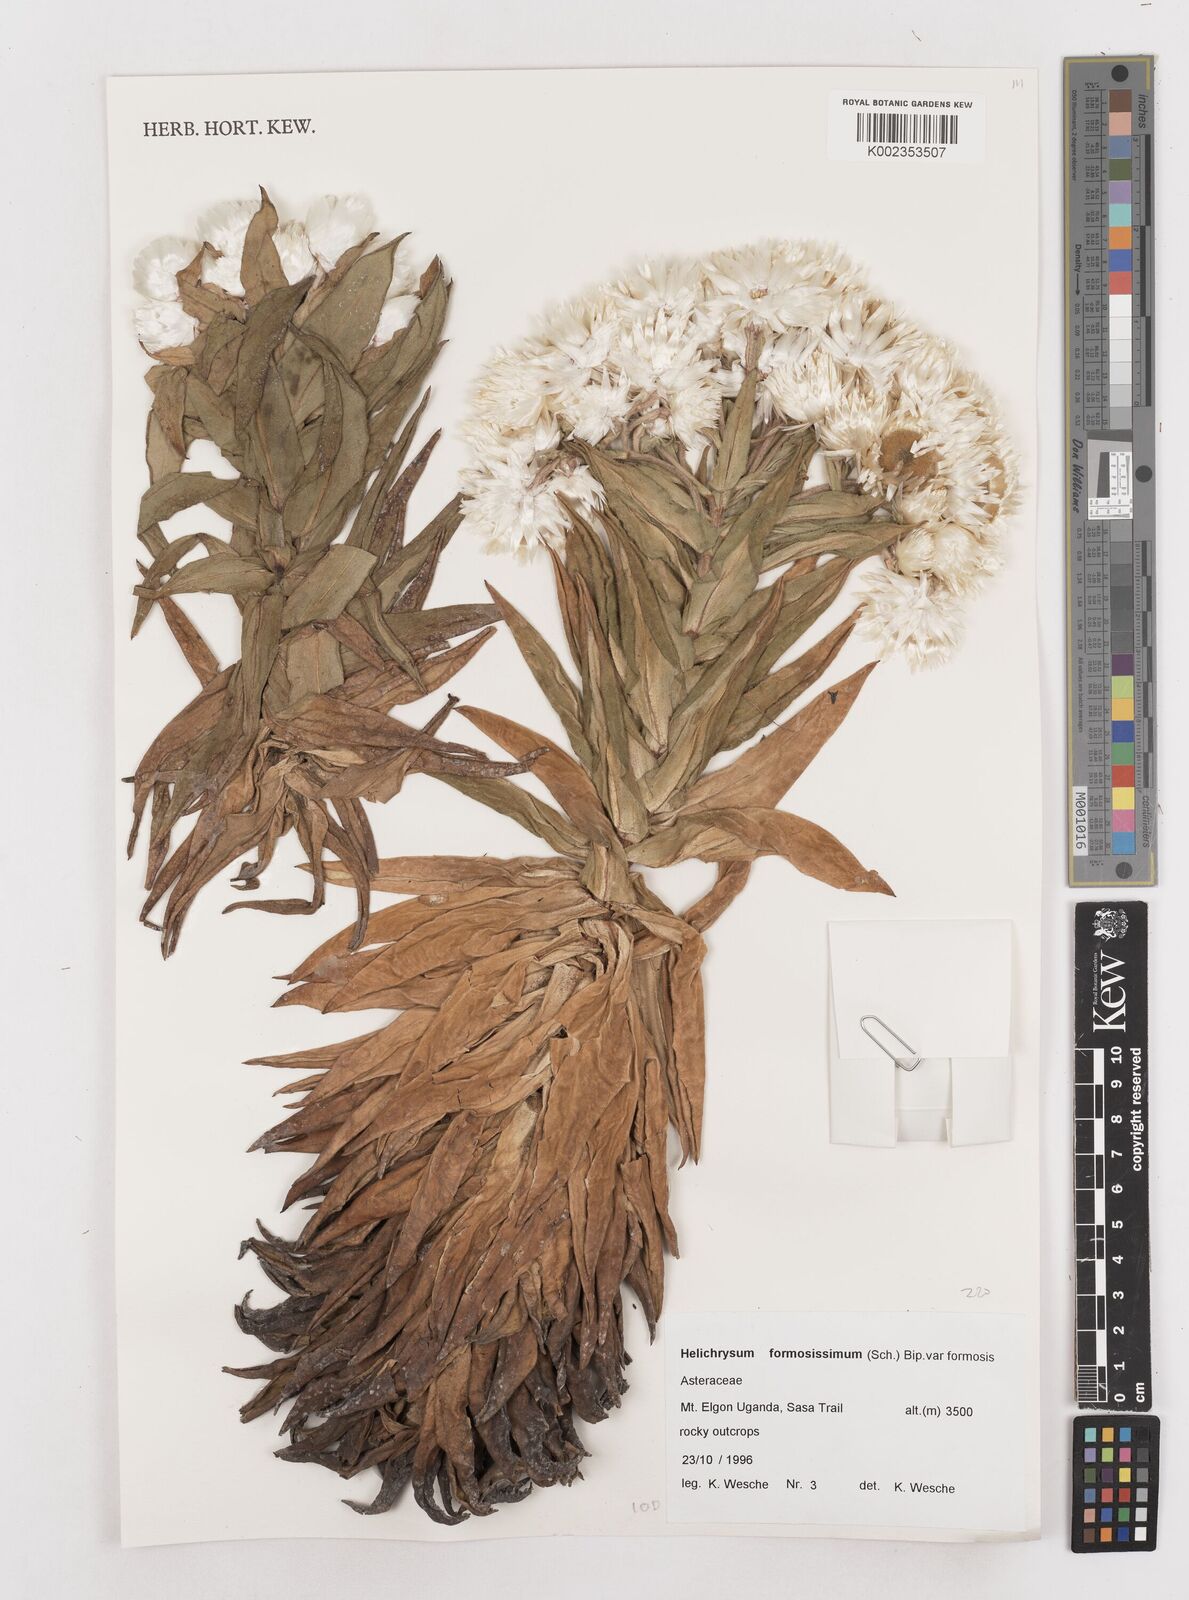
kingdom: Plantae
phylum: Tracheophyta
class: Magnoliopsida
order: Asterales
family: Asteraceae
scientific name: Asteraceae
